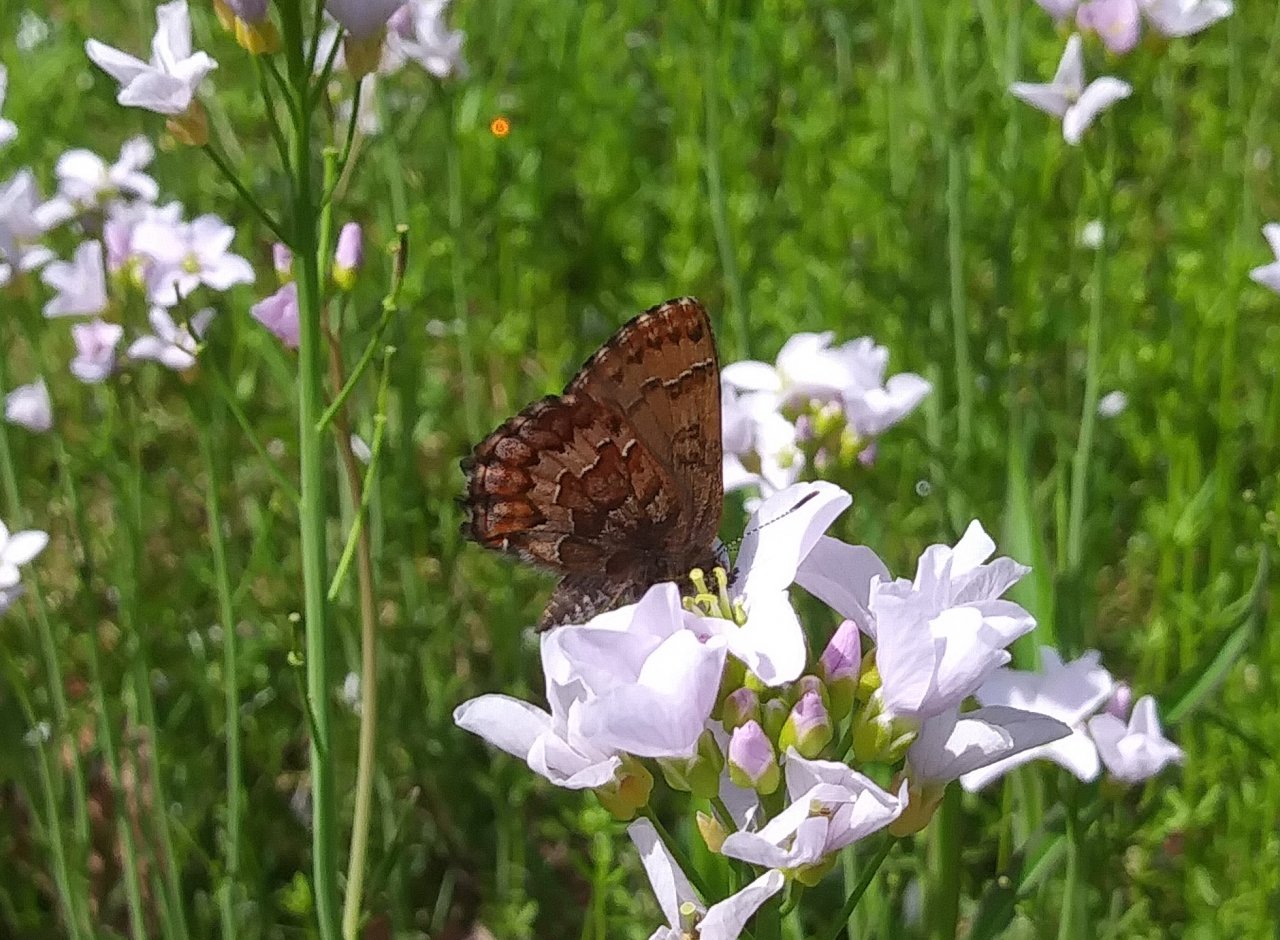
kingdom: Animalia
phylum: Arthropoda
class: Insecta
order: Lepidoptera
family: Lycaenidae
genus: Incisalia
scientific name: Incisalia niphon
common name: Eastern Pine Elfin
